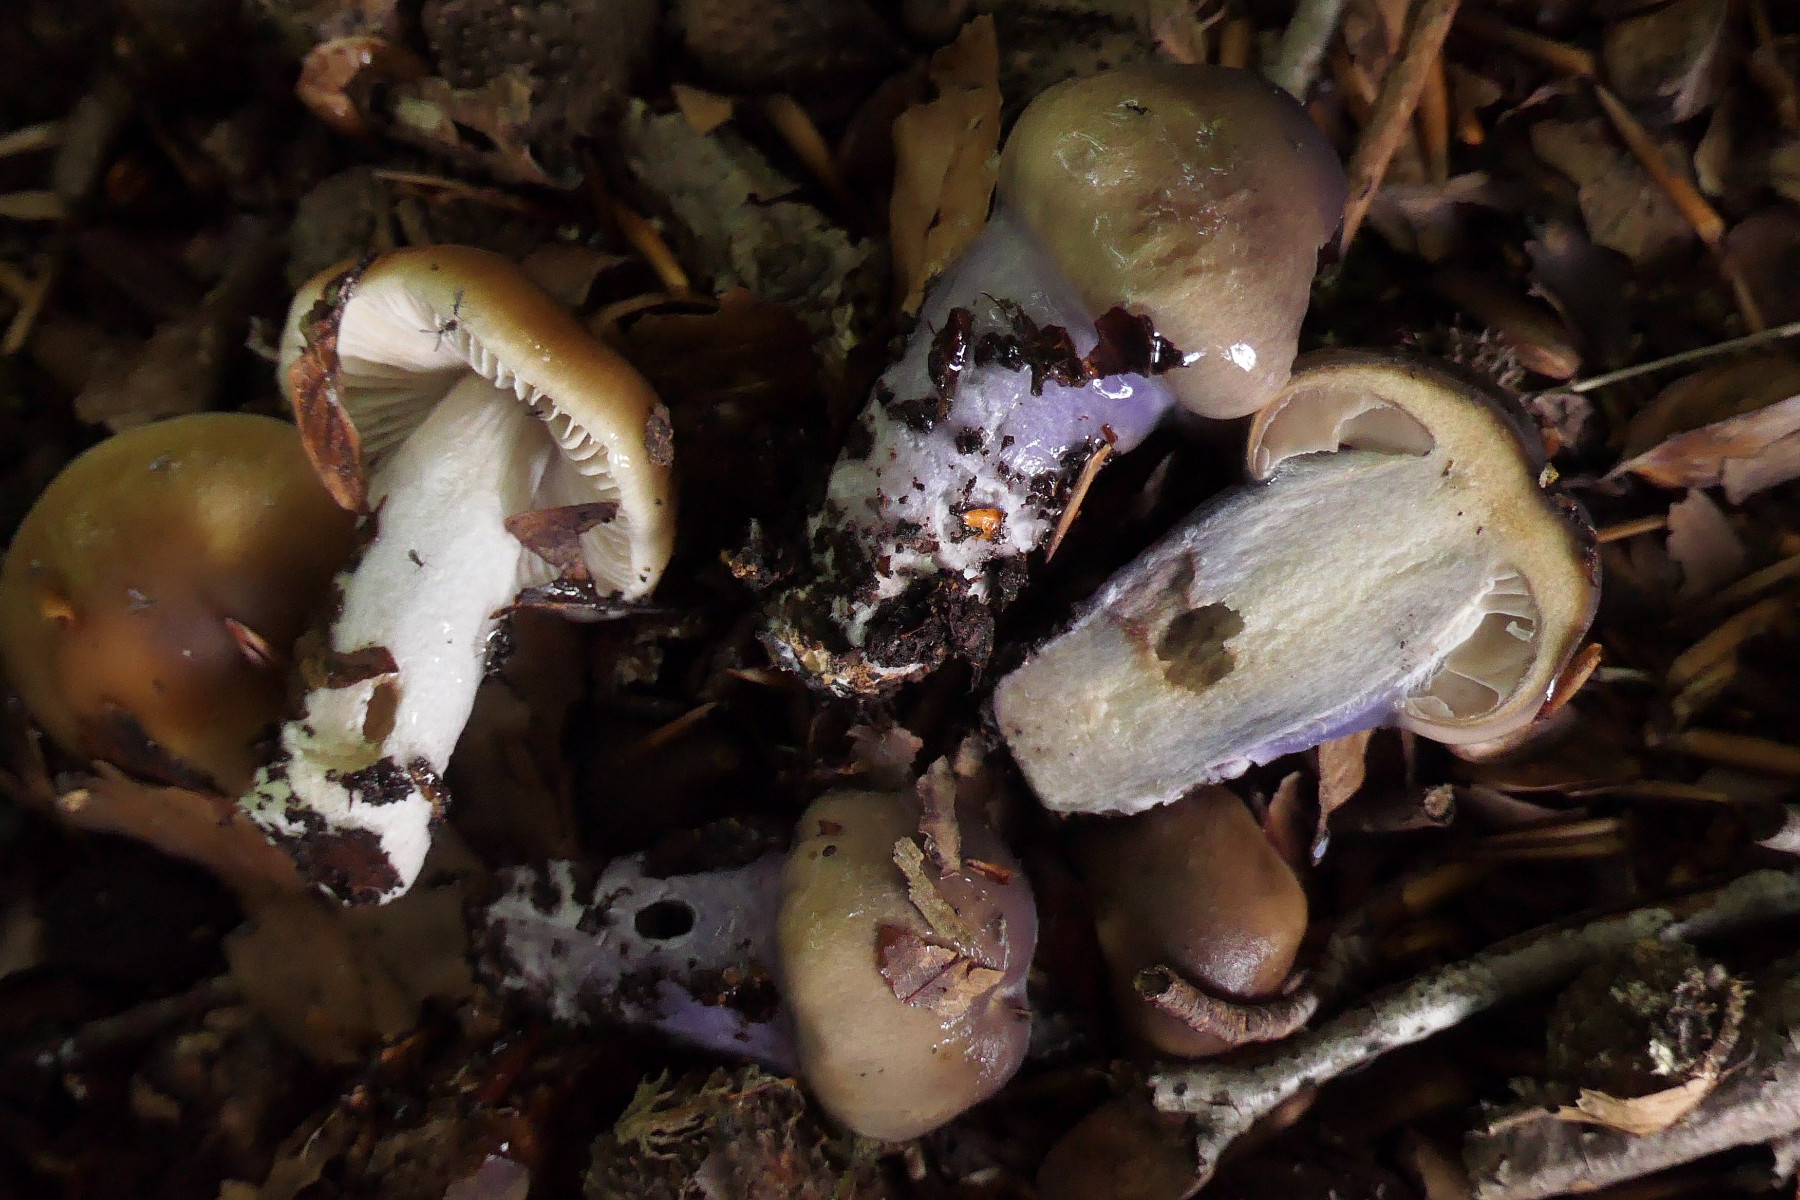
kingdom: Fungi
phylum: Basidiomycota
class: Agaricomycetes
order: Agaricales
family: Cortinariaceae
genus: Cortinarius
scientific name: Cortinarius elatior
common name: høj slørhat
